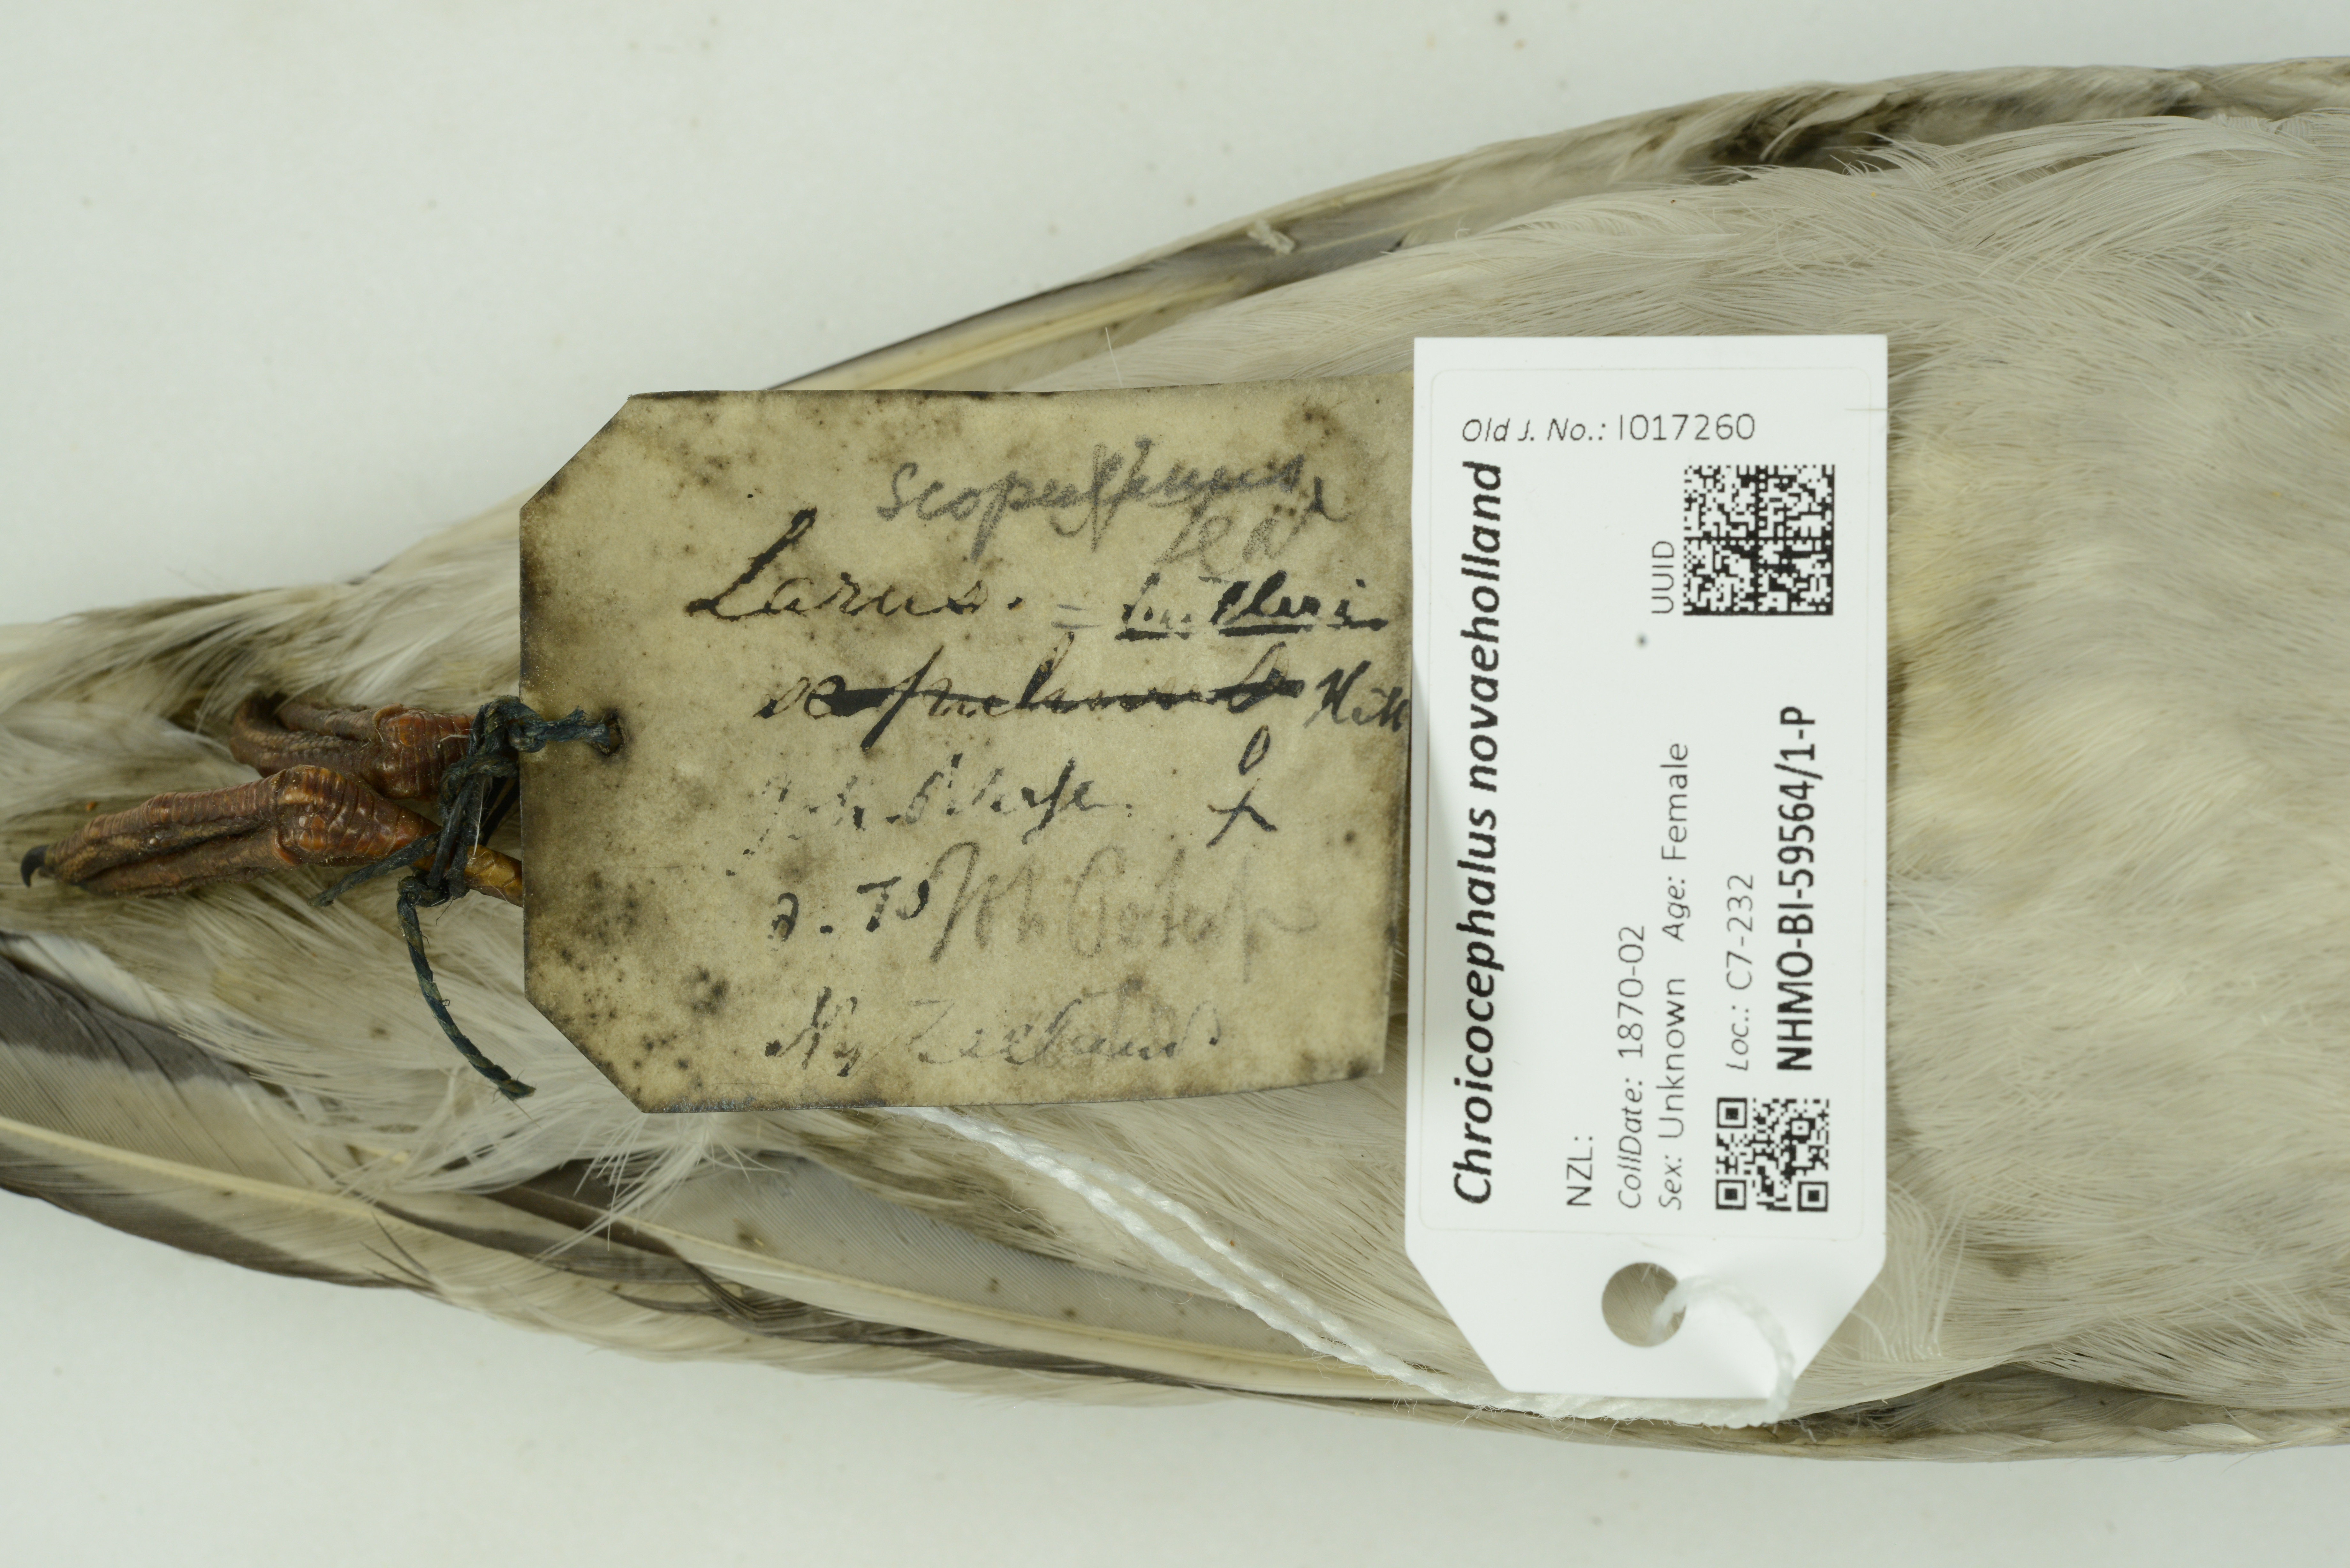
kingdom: Animalia
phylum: Chordata
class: Aves
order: Charadriiformes
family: Laridae
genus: Chroicocephalus
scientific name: Chroicocephalus novaehollandiae
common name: Silver gull
